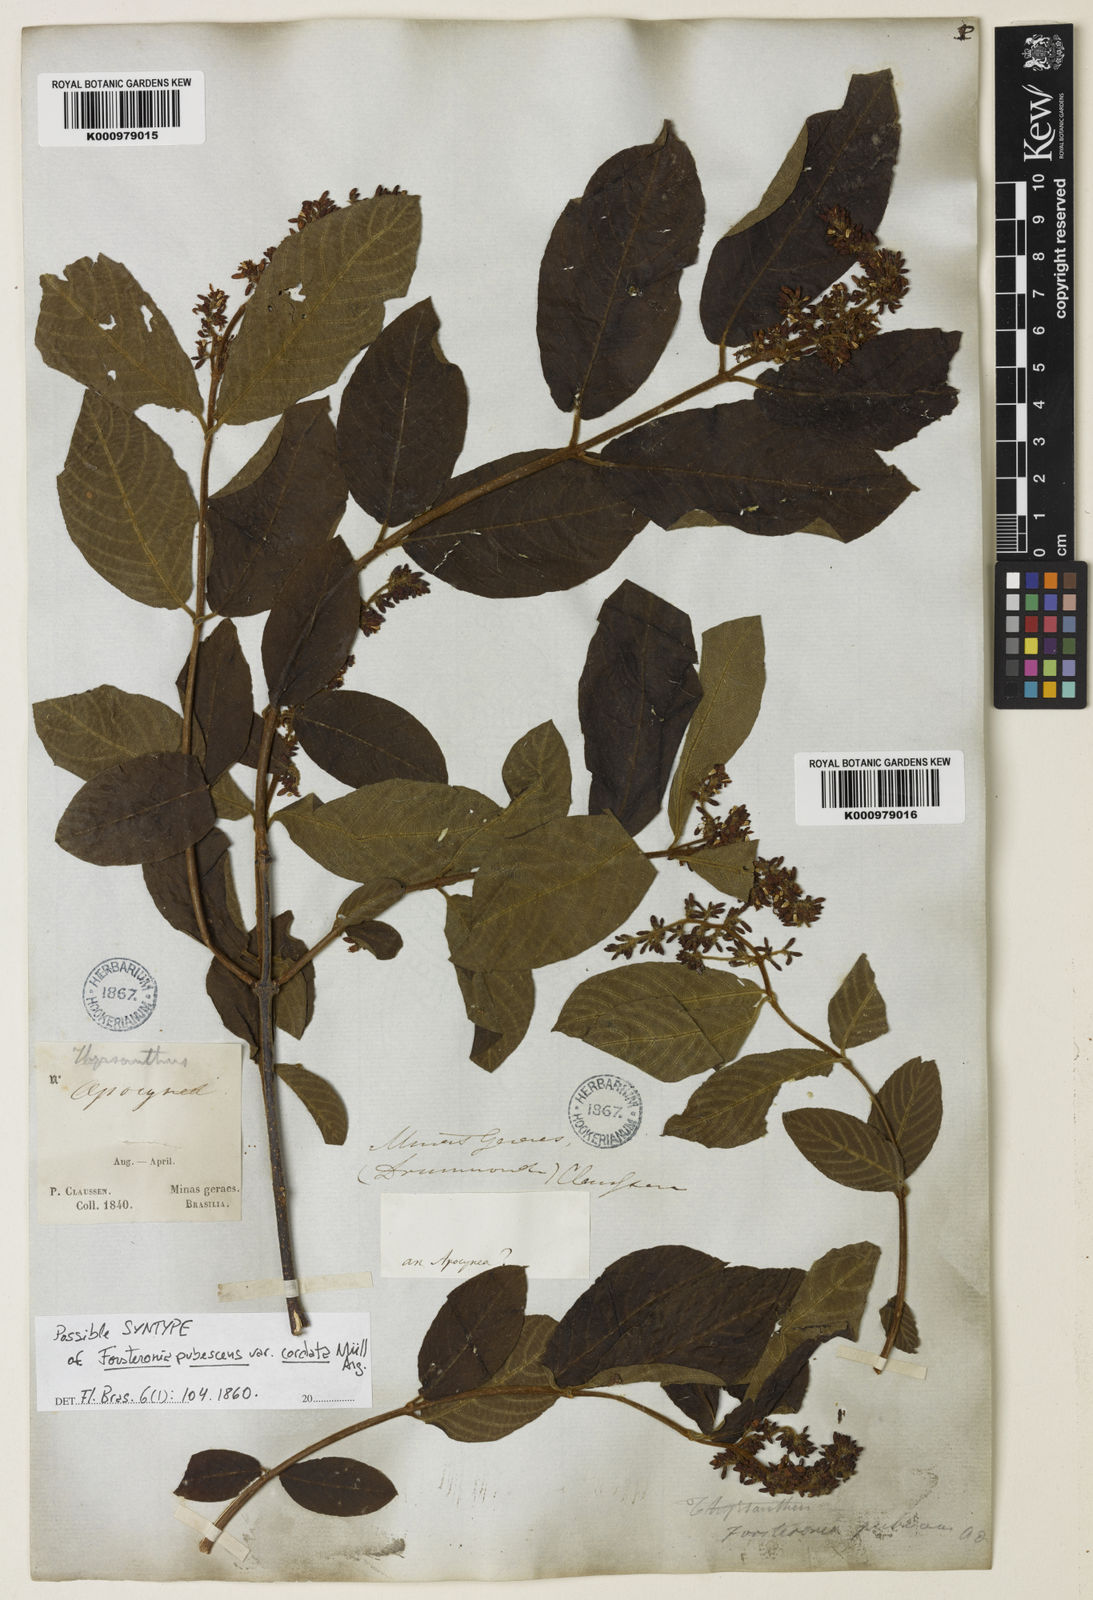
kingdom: Plantae
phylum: Tracheophyta
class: Magnoliopsida
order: Gentianales
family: Apocynaceae
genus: Forsteronia
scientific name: Forsteronia
